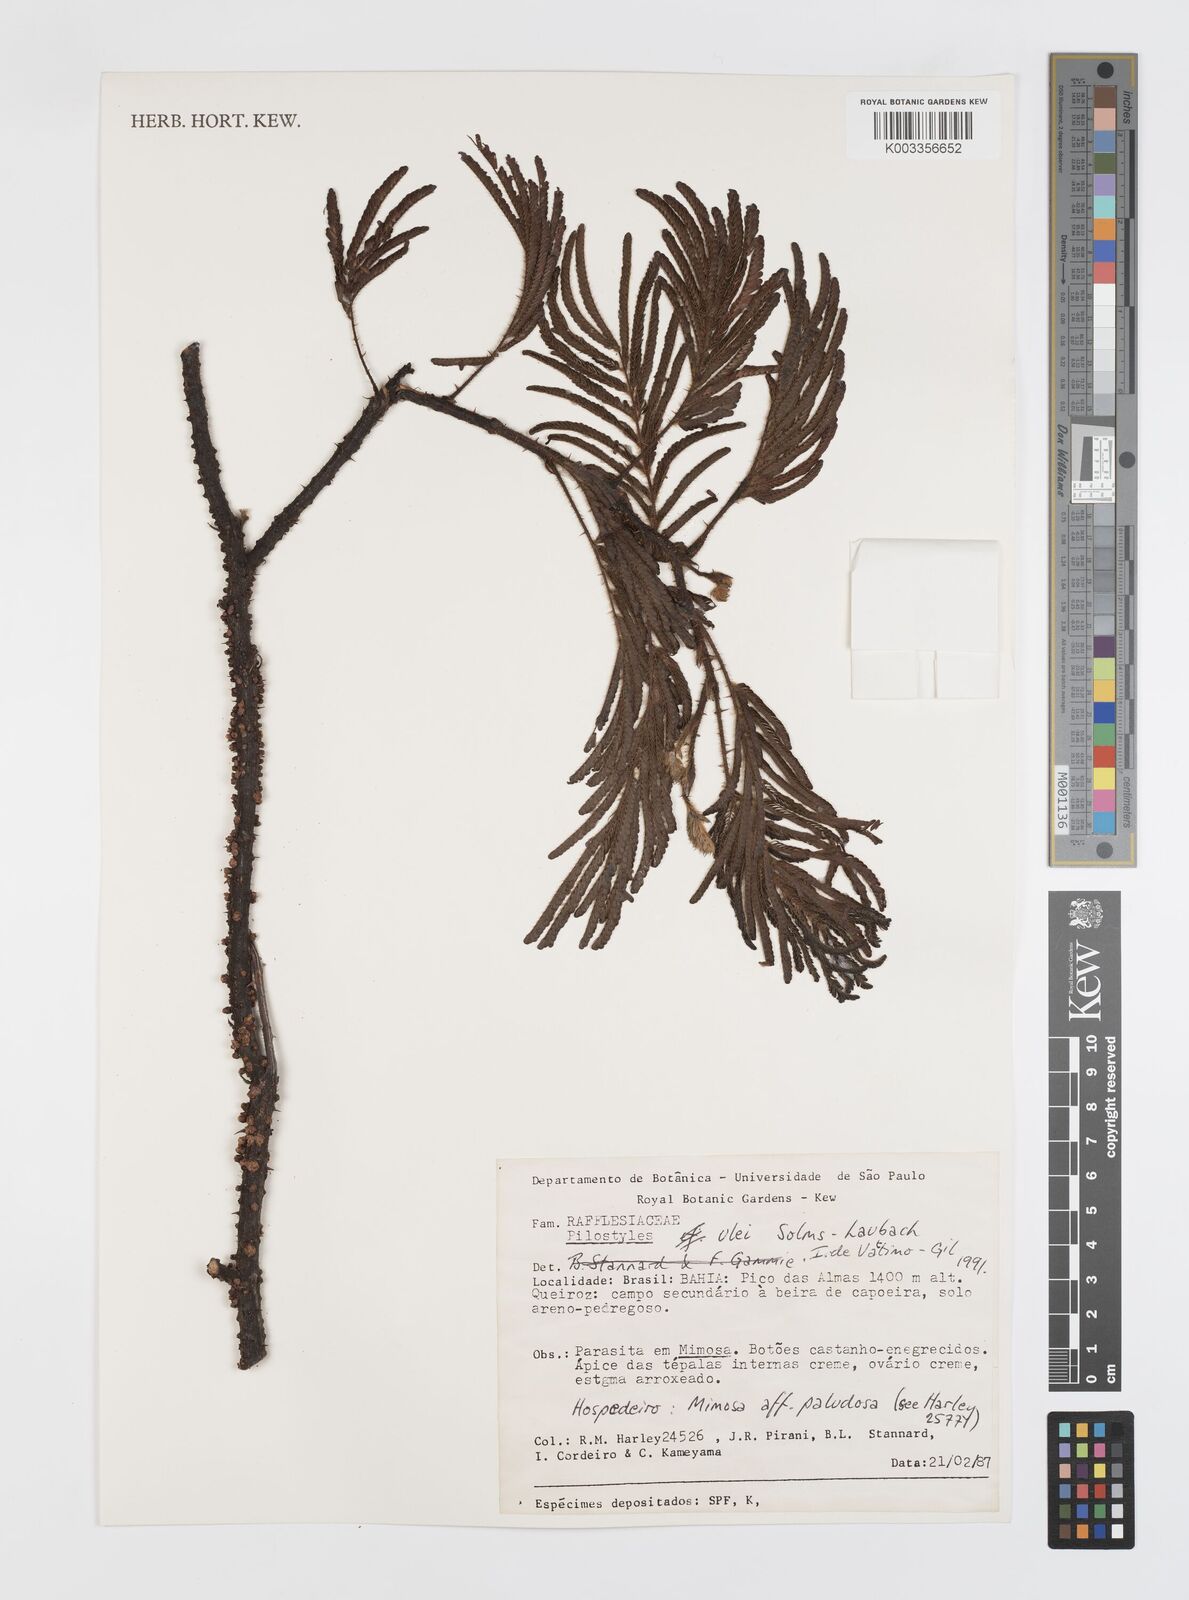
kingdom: Plantae
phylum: Tracheophyta
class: Magnoliopsida
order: Cucurbitales
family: Apodanthaceae
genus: Pilostyles
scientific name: Pilostyles blanchetii
